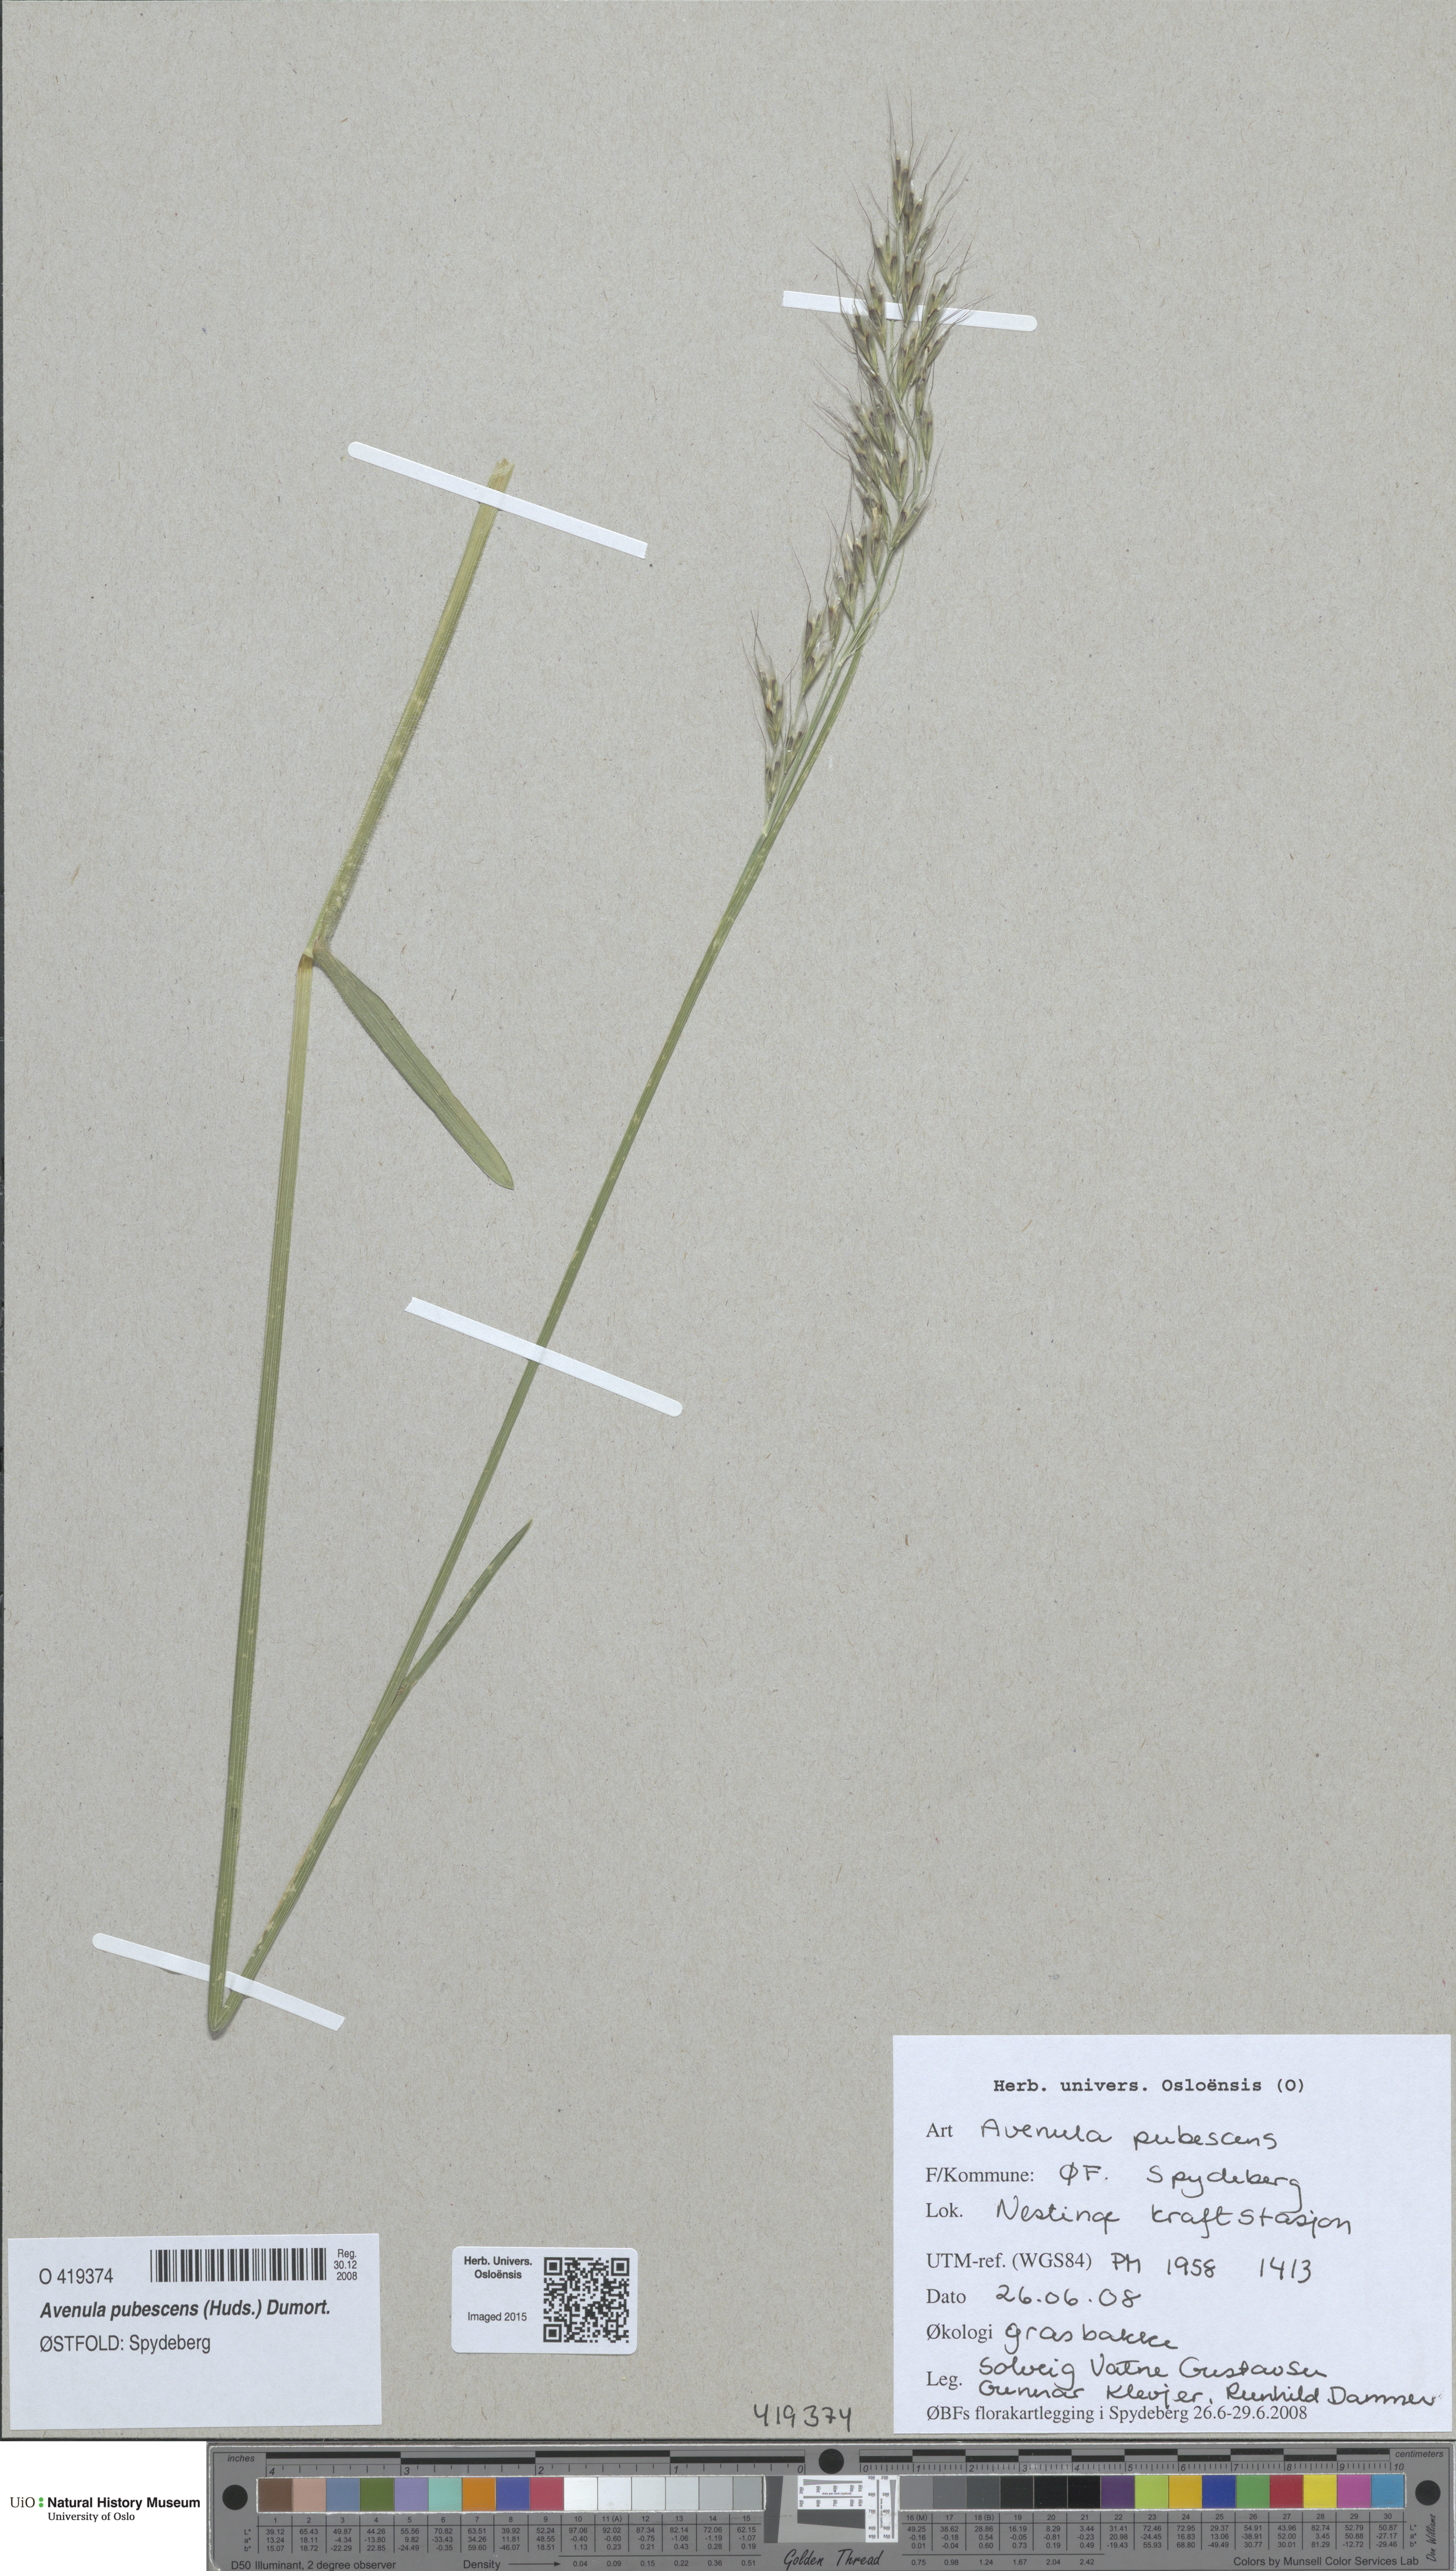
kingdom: Plantae
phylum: Tracheophyta
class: Liliopsida
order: Poales
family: Poaceae
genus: Avenula
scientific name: Avenula pubescens
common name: Downy alpine oatgrass
